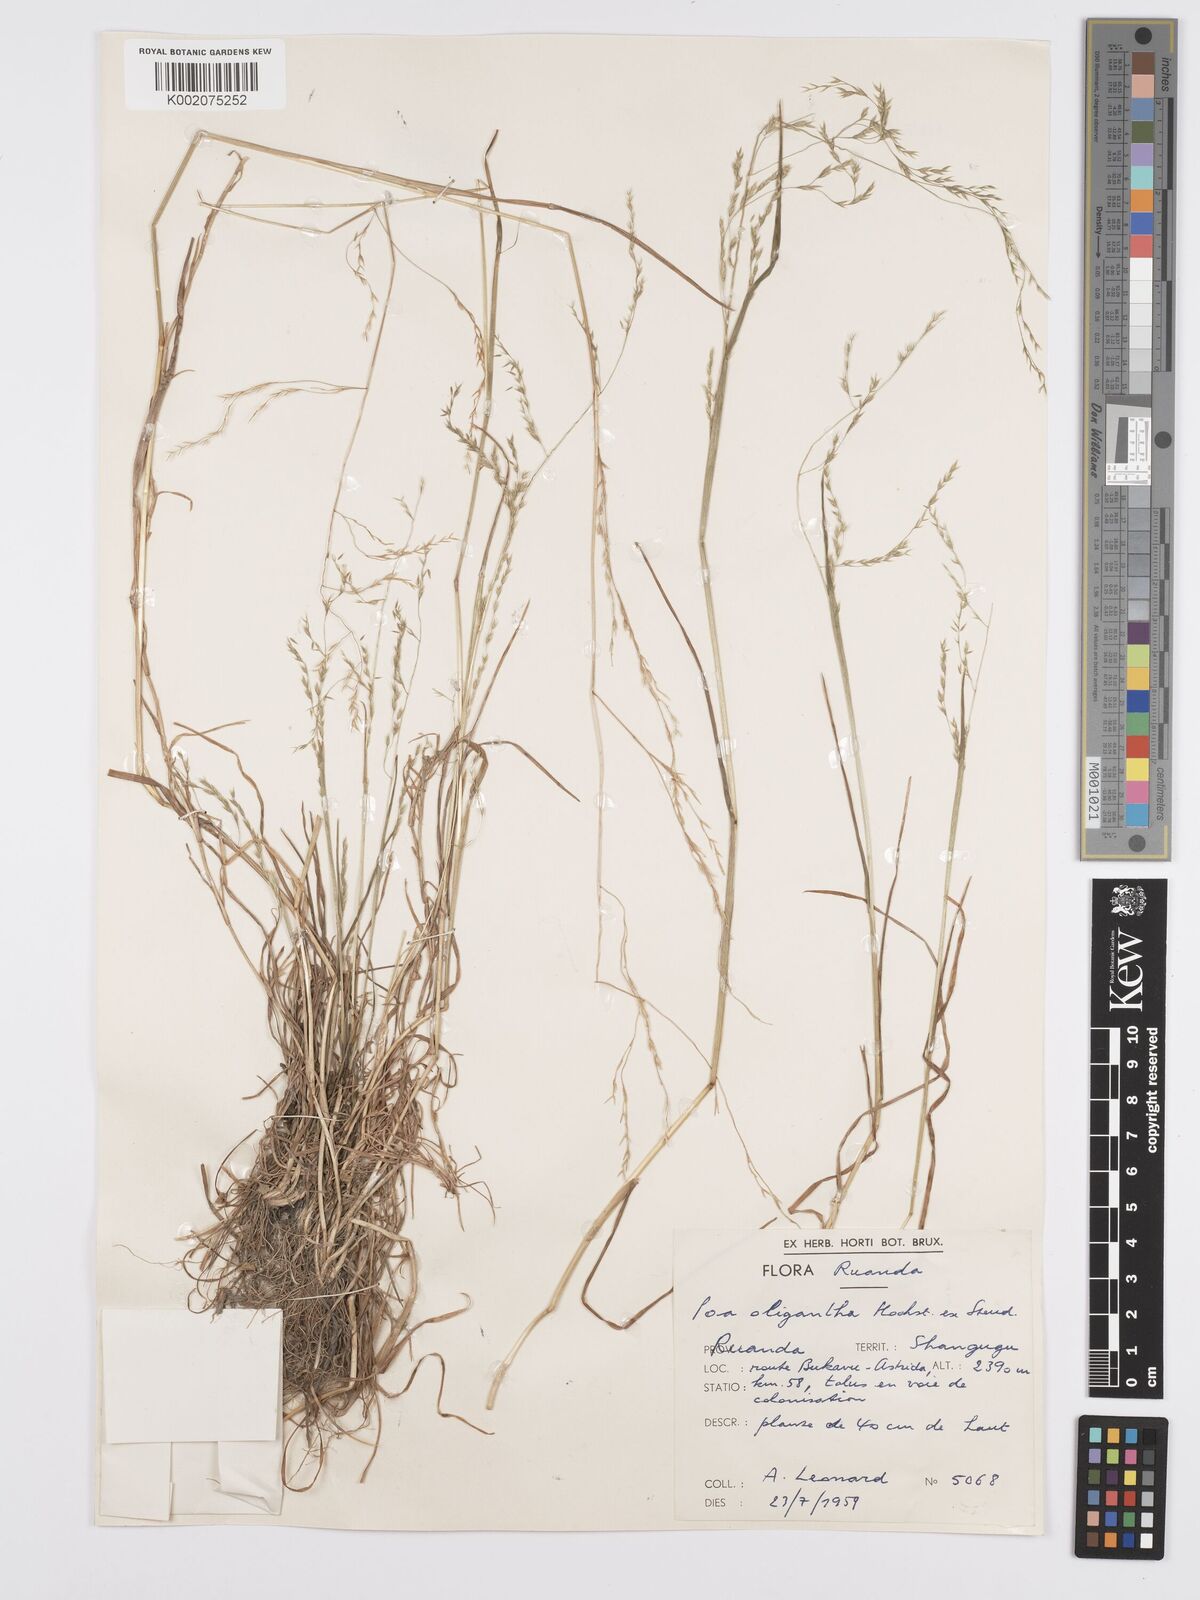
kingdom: Plantae
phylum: Tracheophyta
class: Liliopsida
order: Poales
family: Poaceae
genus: Poa
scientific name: Poa schimperiana
